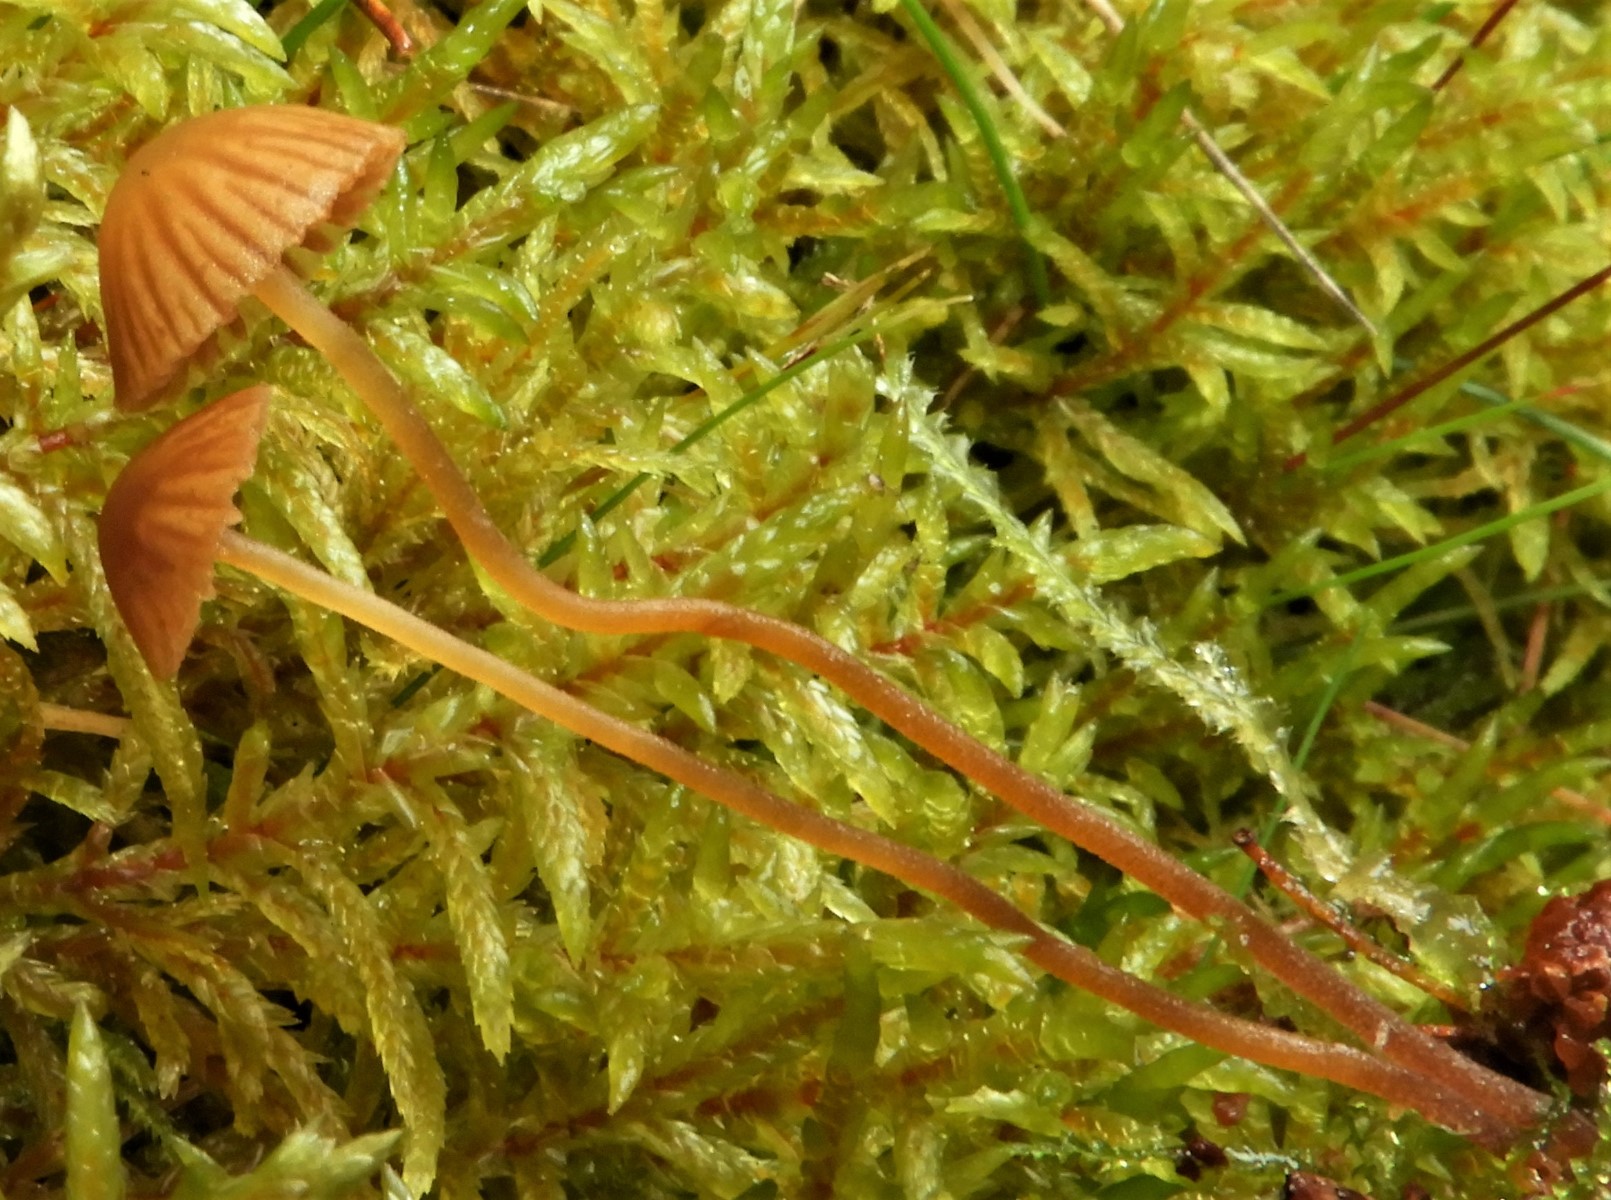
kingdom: Fungi
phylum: Basidiomycota
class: Agaricomycetes
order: Agaricales
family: Hymenogastraceae
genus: Galerina
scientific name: Galerina
